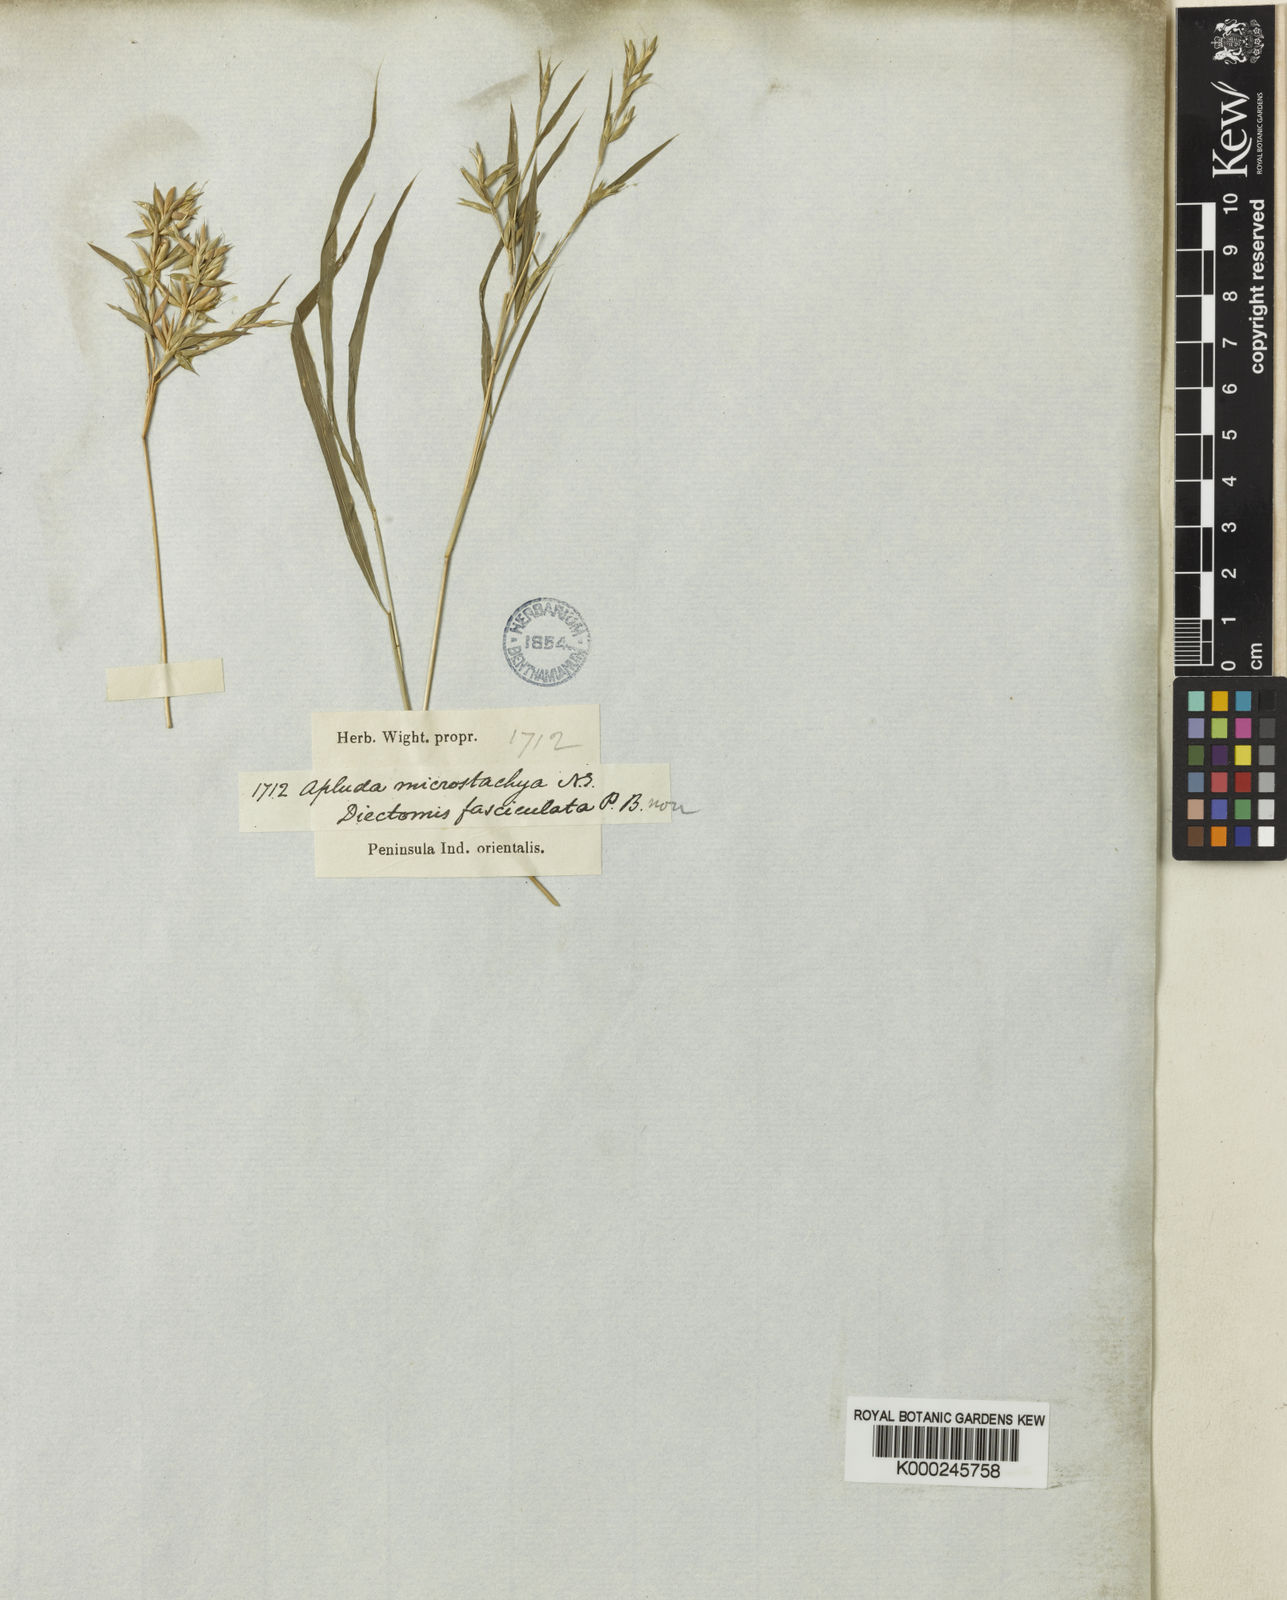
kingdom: Plantae
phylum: Tracheophyta
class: Liliopsida
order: Poales
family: Poaceae
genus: Apluda
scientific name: Apluda mutica
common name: Mauritian grass
